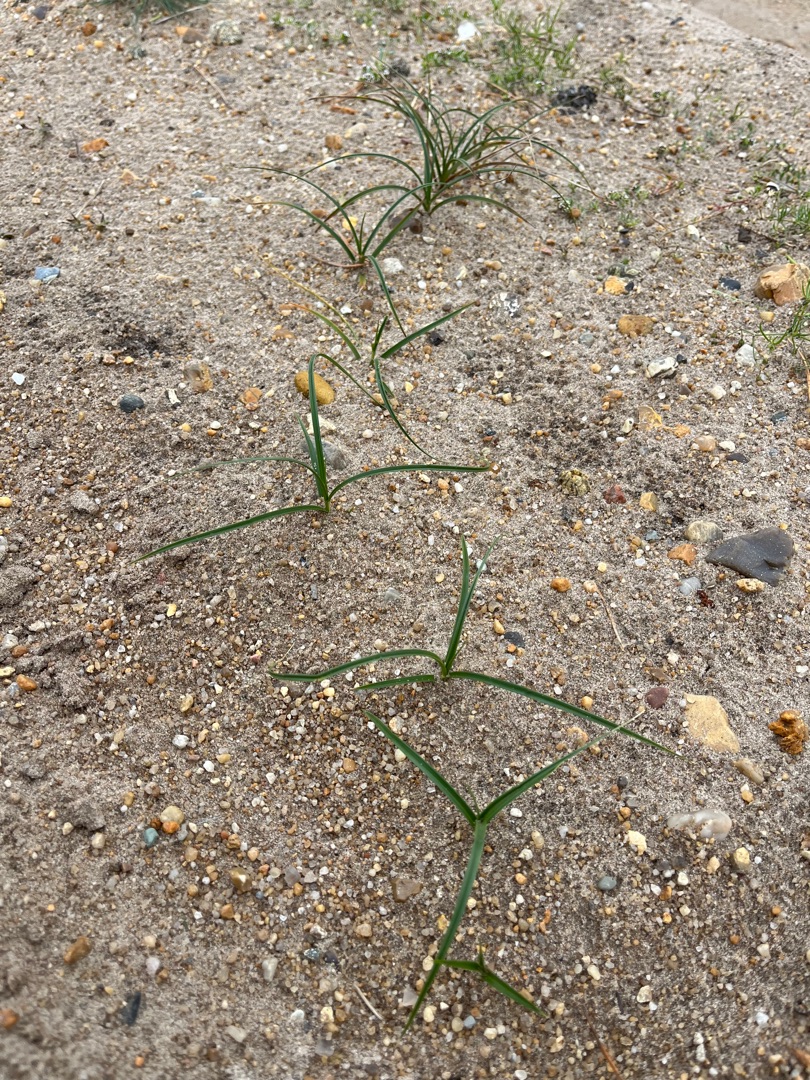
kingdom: Plantae
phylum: Tracheophyta
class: Liliopsida
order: Poales
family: Cyperaceae
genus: Carex
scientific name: Carex arenaria
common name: Sand-star
